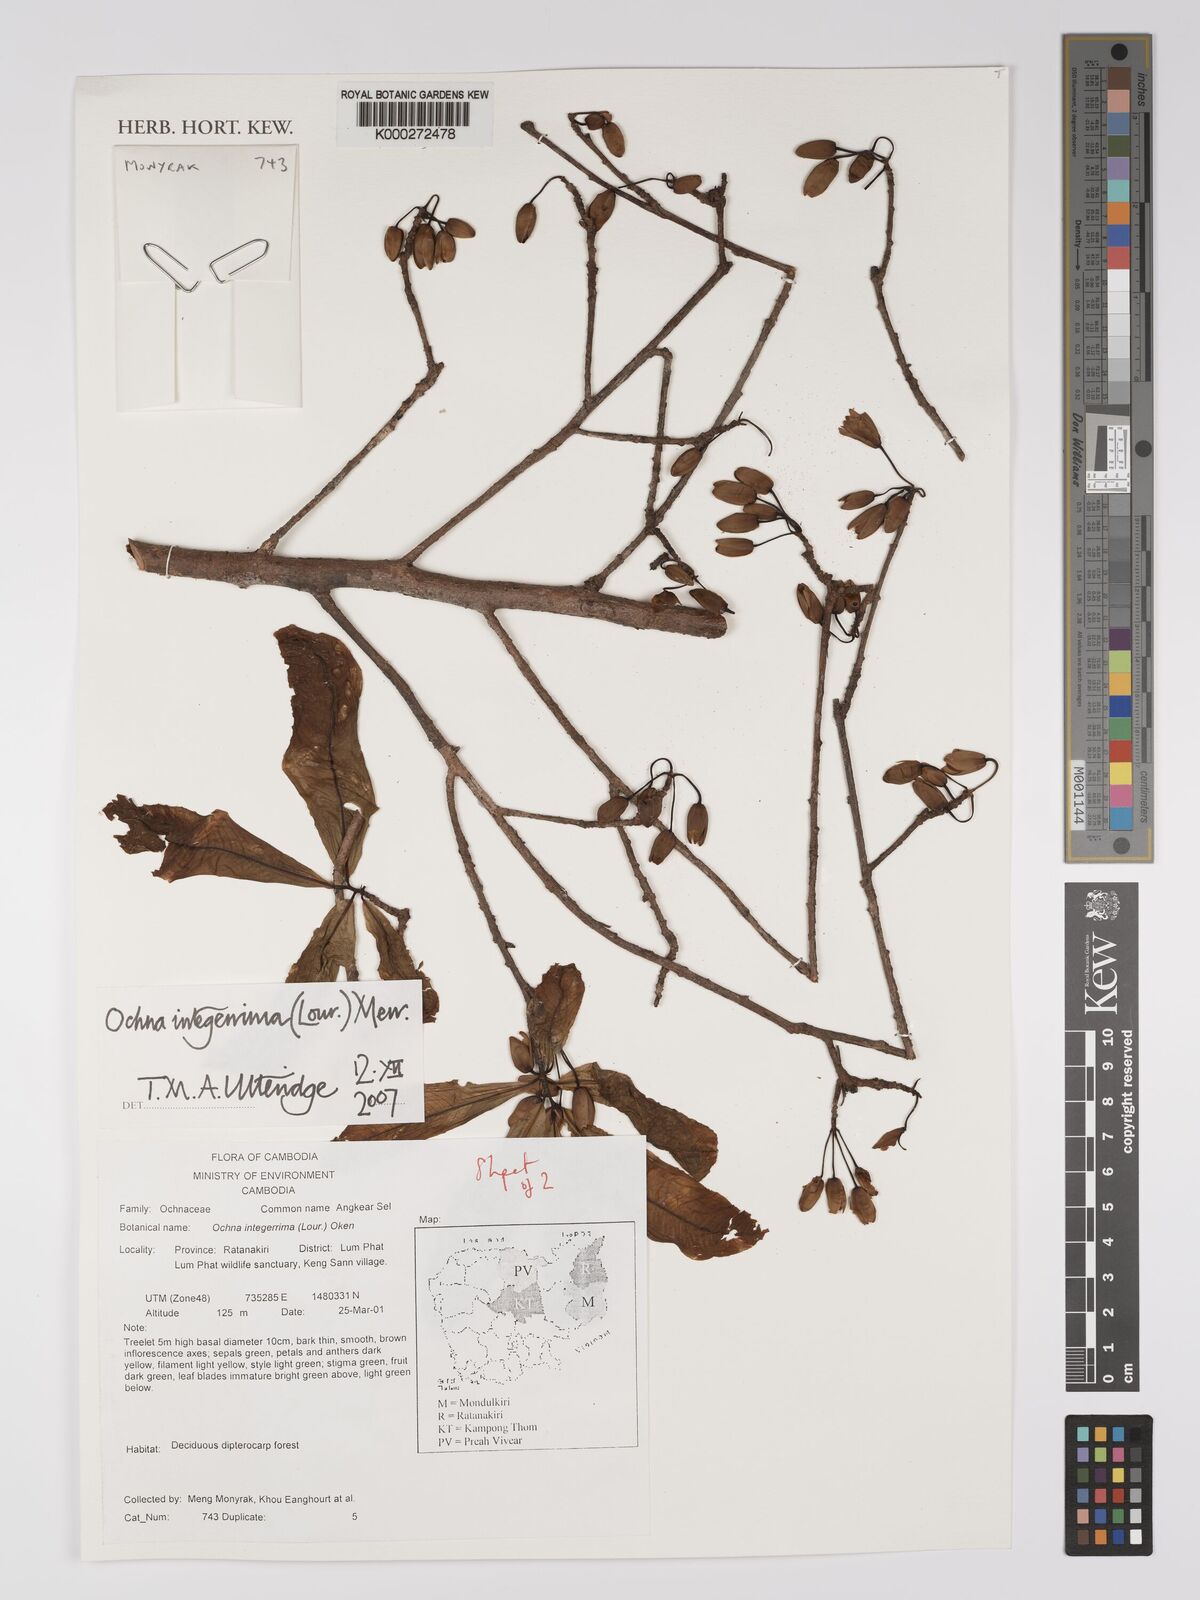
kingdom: Plantae
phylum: Tracheophyta
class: Magnoliopsida
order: Malpighiales
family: Ochnaceae
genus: Ochna
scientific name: Ochna integerrima
